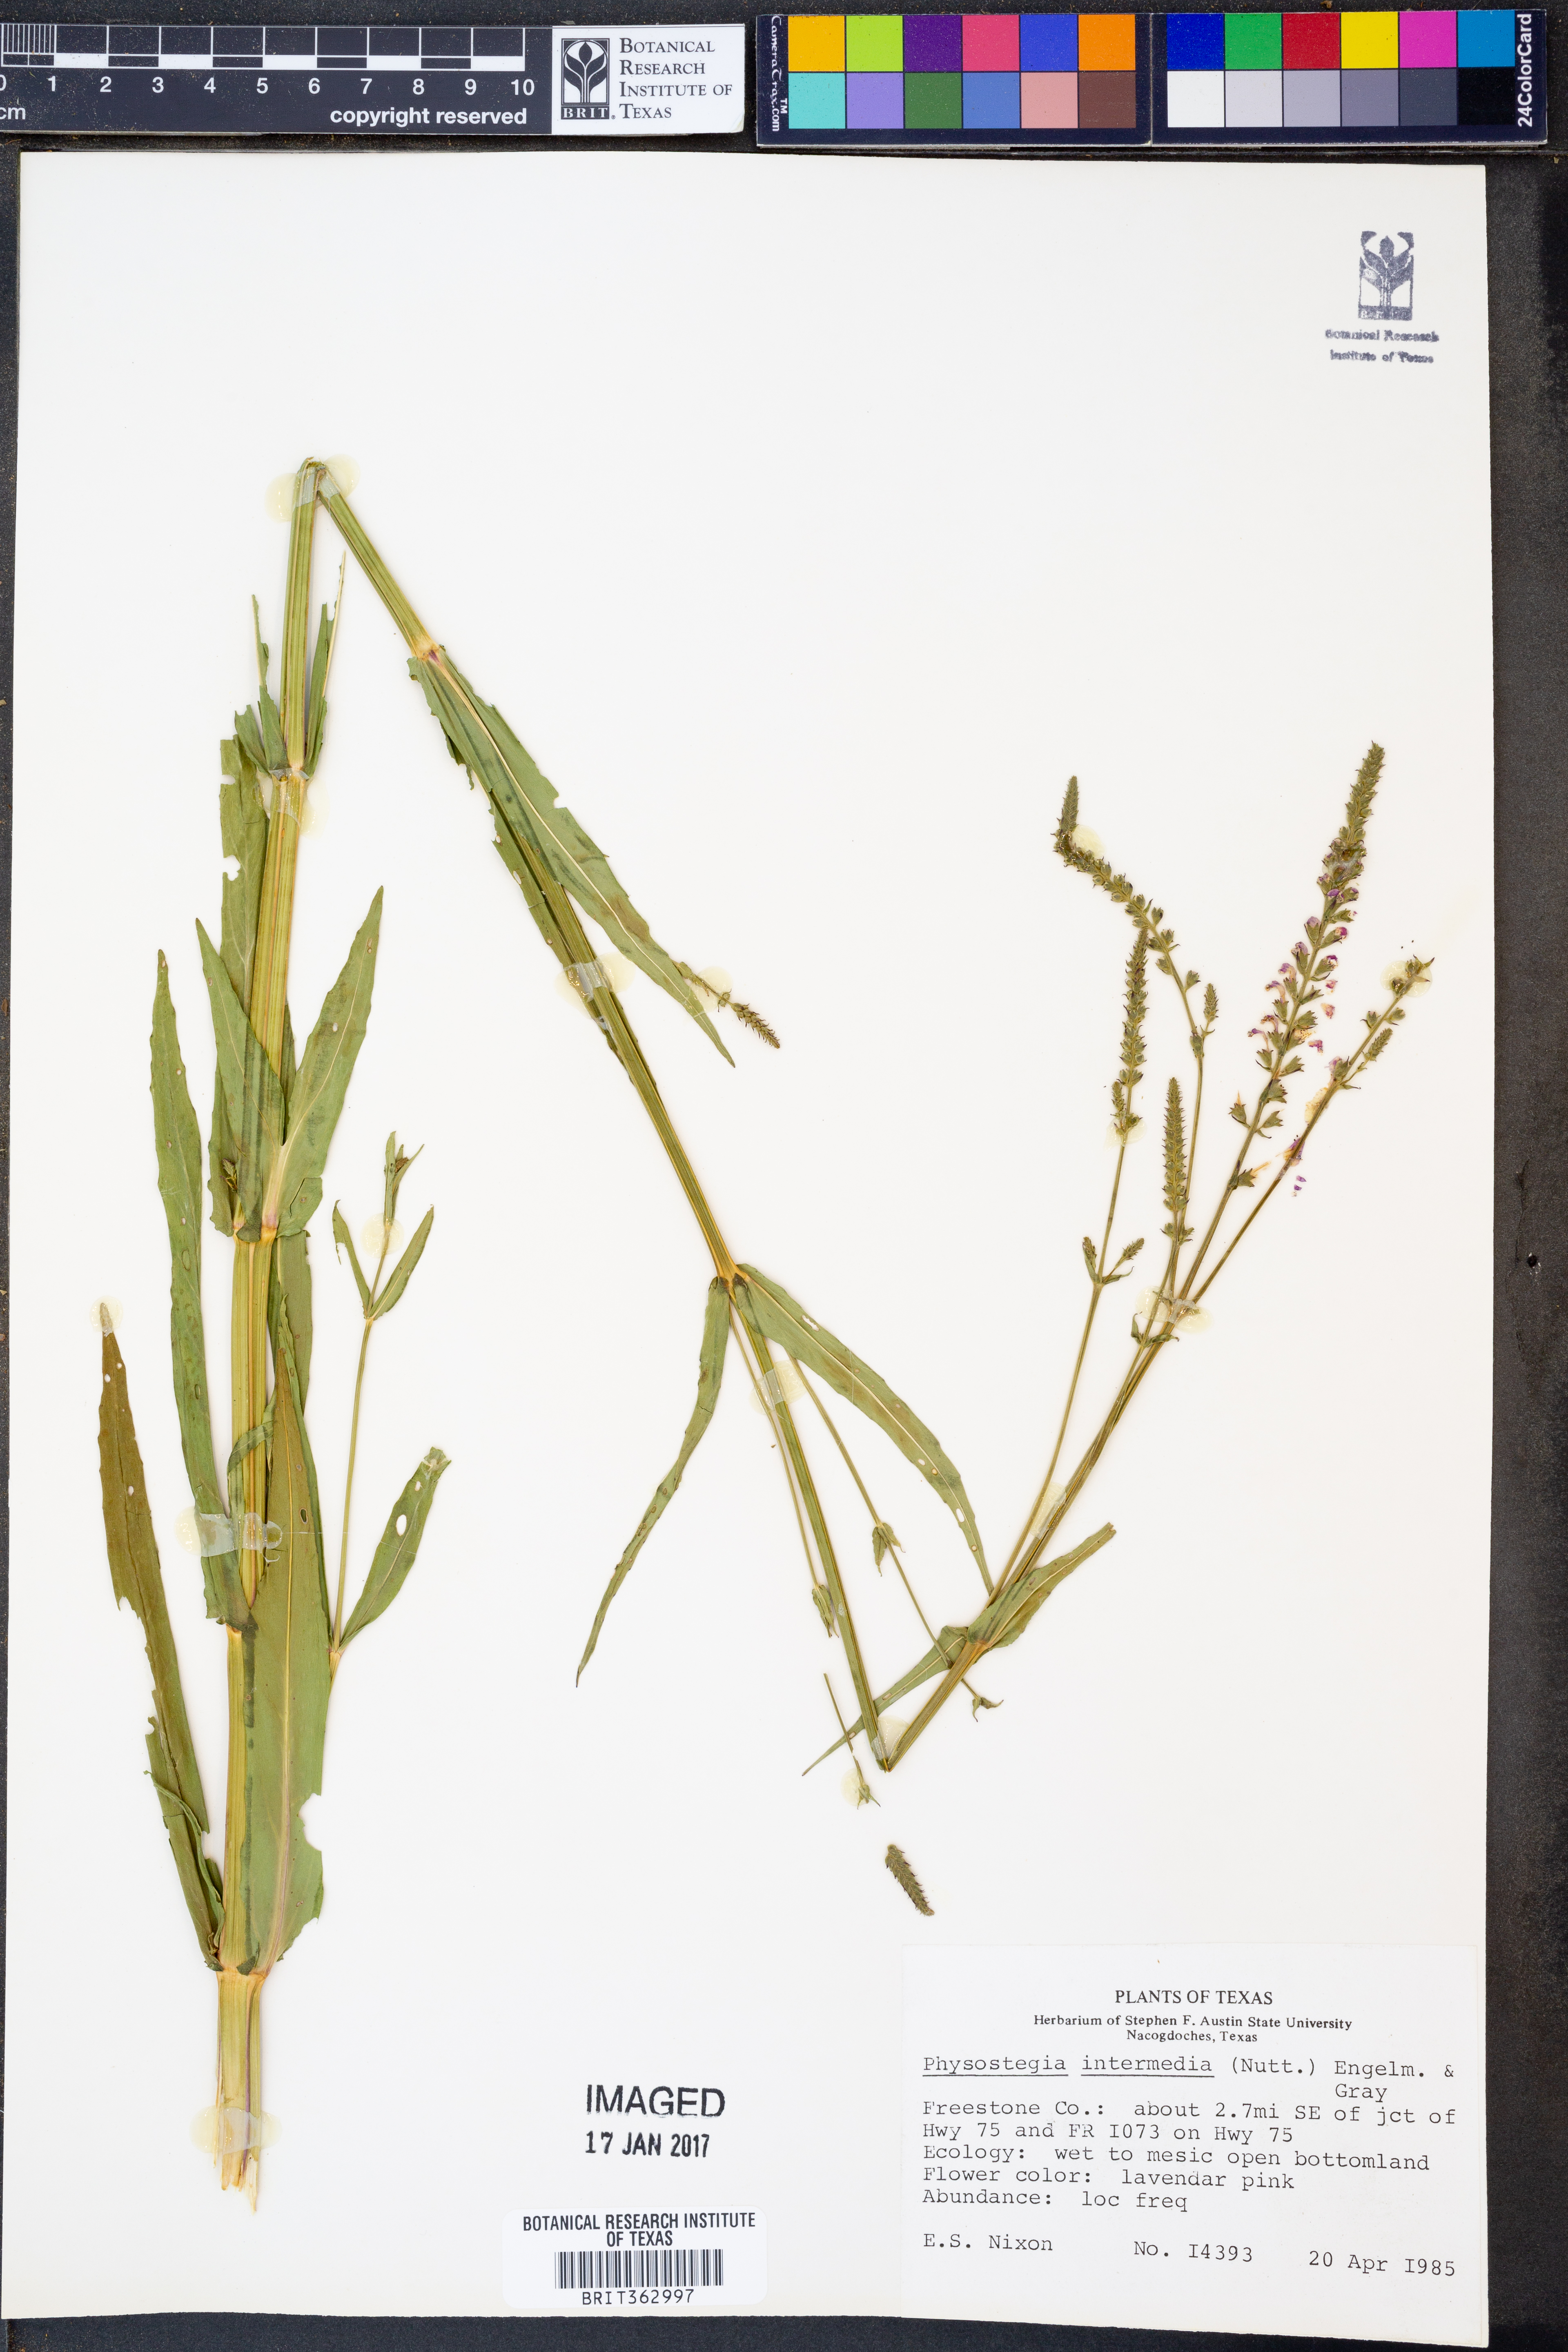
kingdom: Plantae
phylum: Tracheophyta
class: Magnoliopsida
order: Lamiales
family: Lamiaceae
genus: Physostegia
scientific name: Physostegia intermedia
